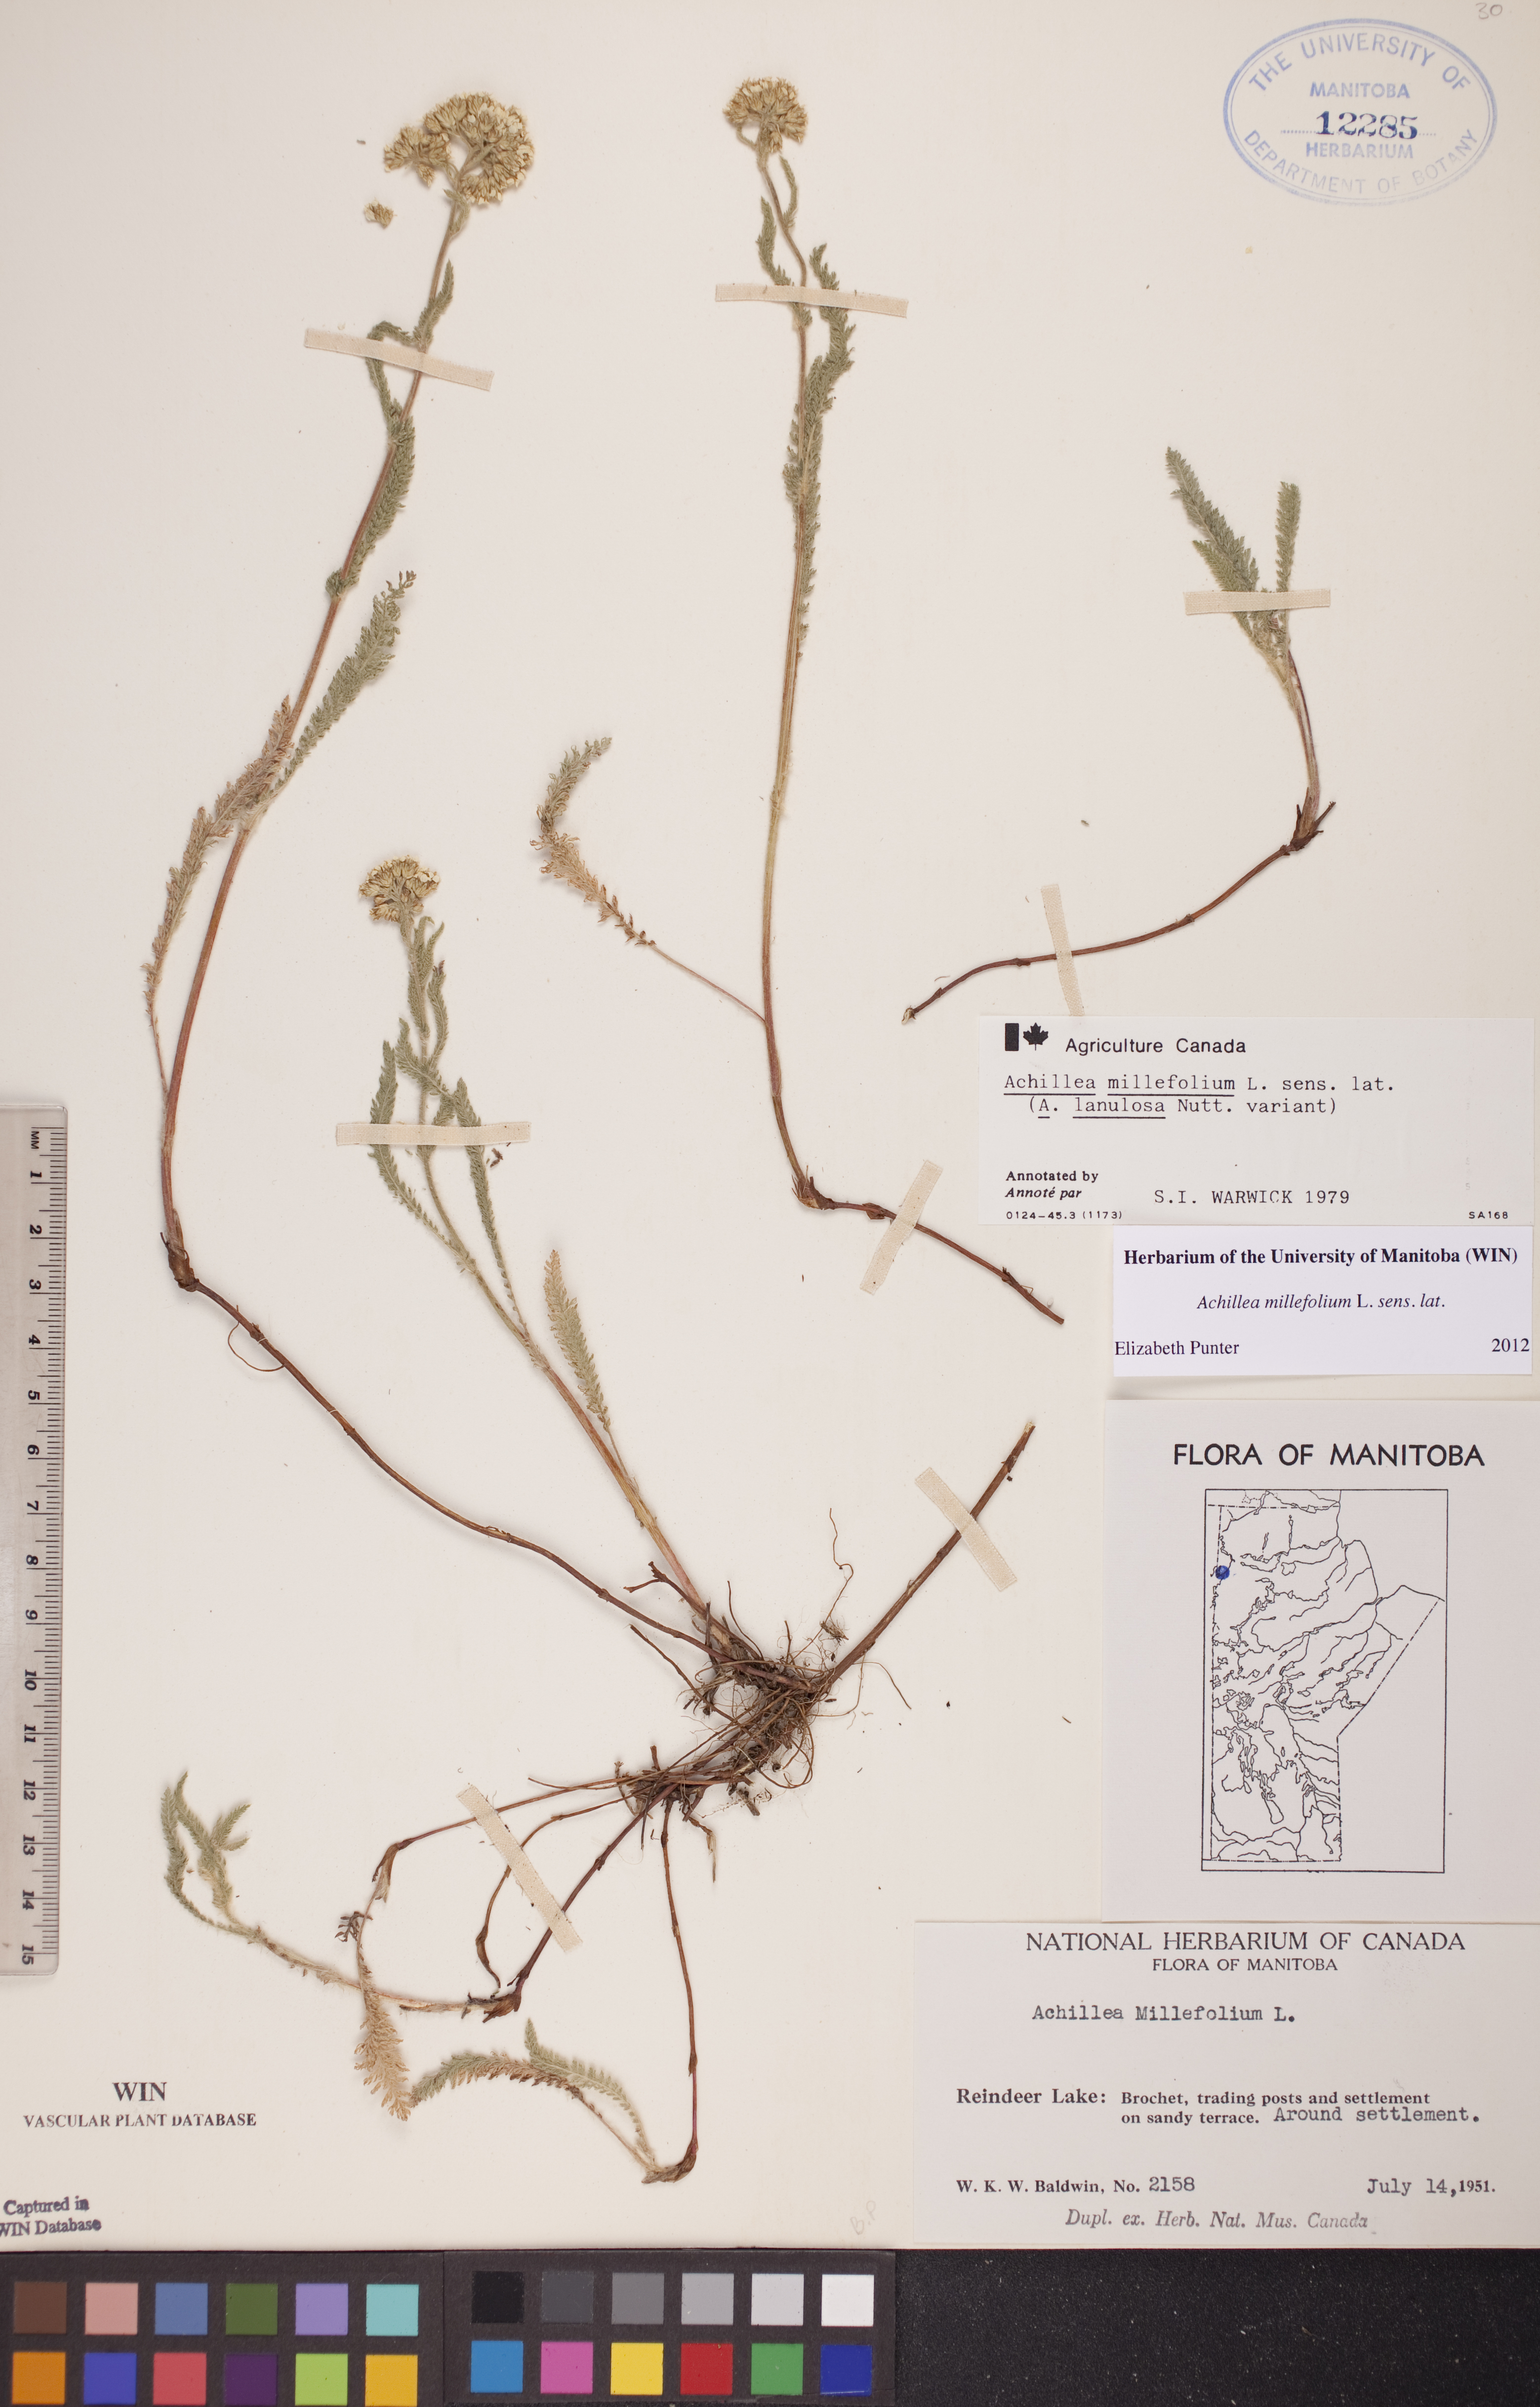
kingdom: Plantae
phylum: Tracheophyta
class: Magnoliopsida
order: Asterales
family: Asteraceae
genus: Achillea
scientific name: Achillea millefolium
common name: Yarrow
